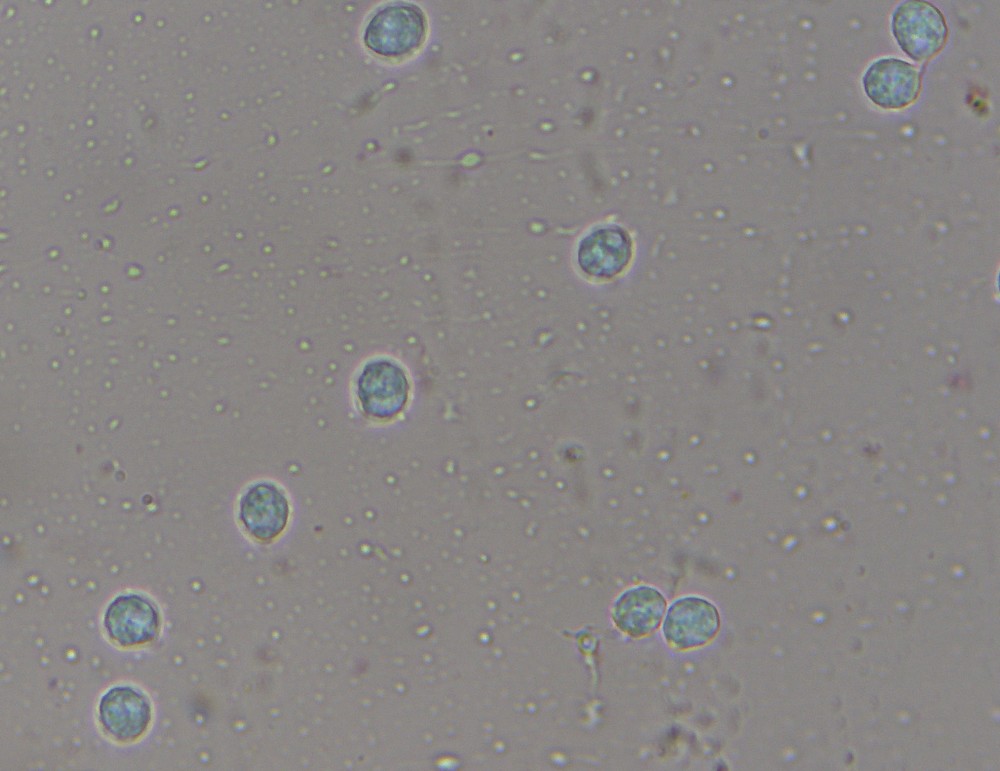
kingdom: Fungi
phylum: Basidiomycota
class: Agaricomycetes
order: Agaricales
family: Tricholomataceae
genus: Lulesia
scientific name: Lulesia
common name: sortnende troldhat
